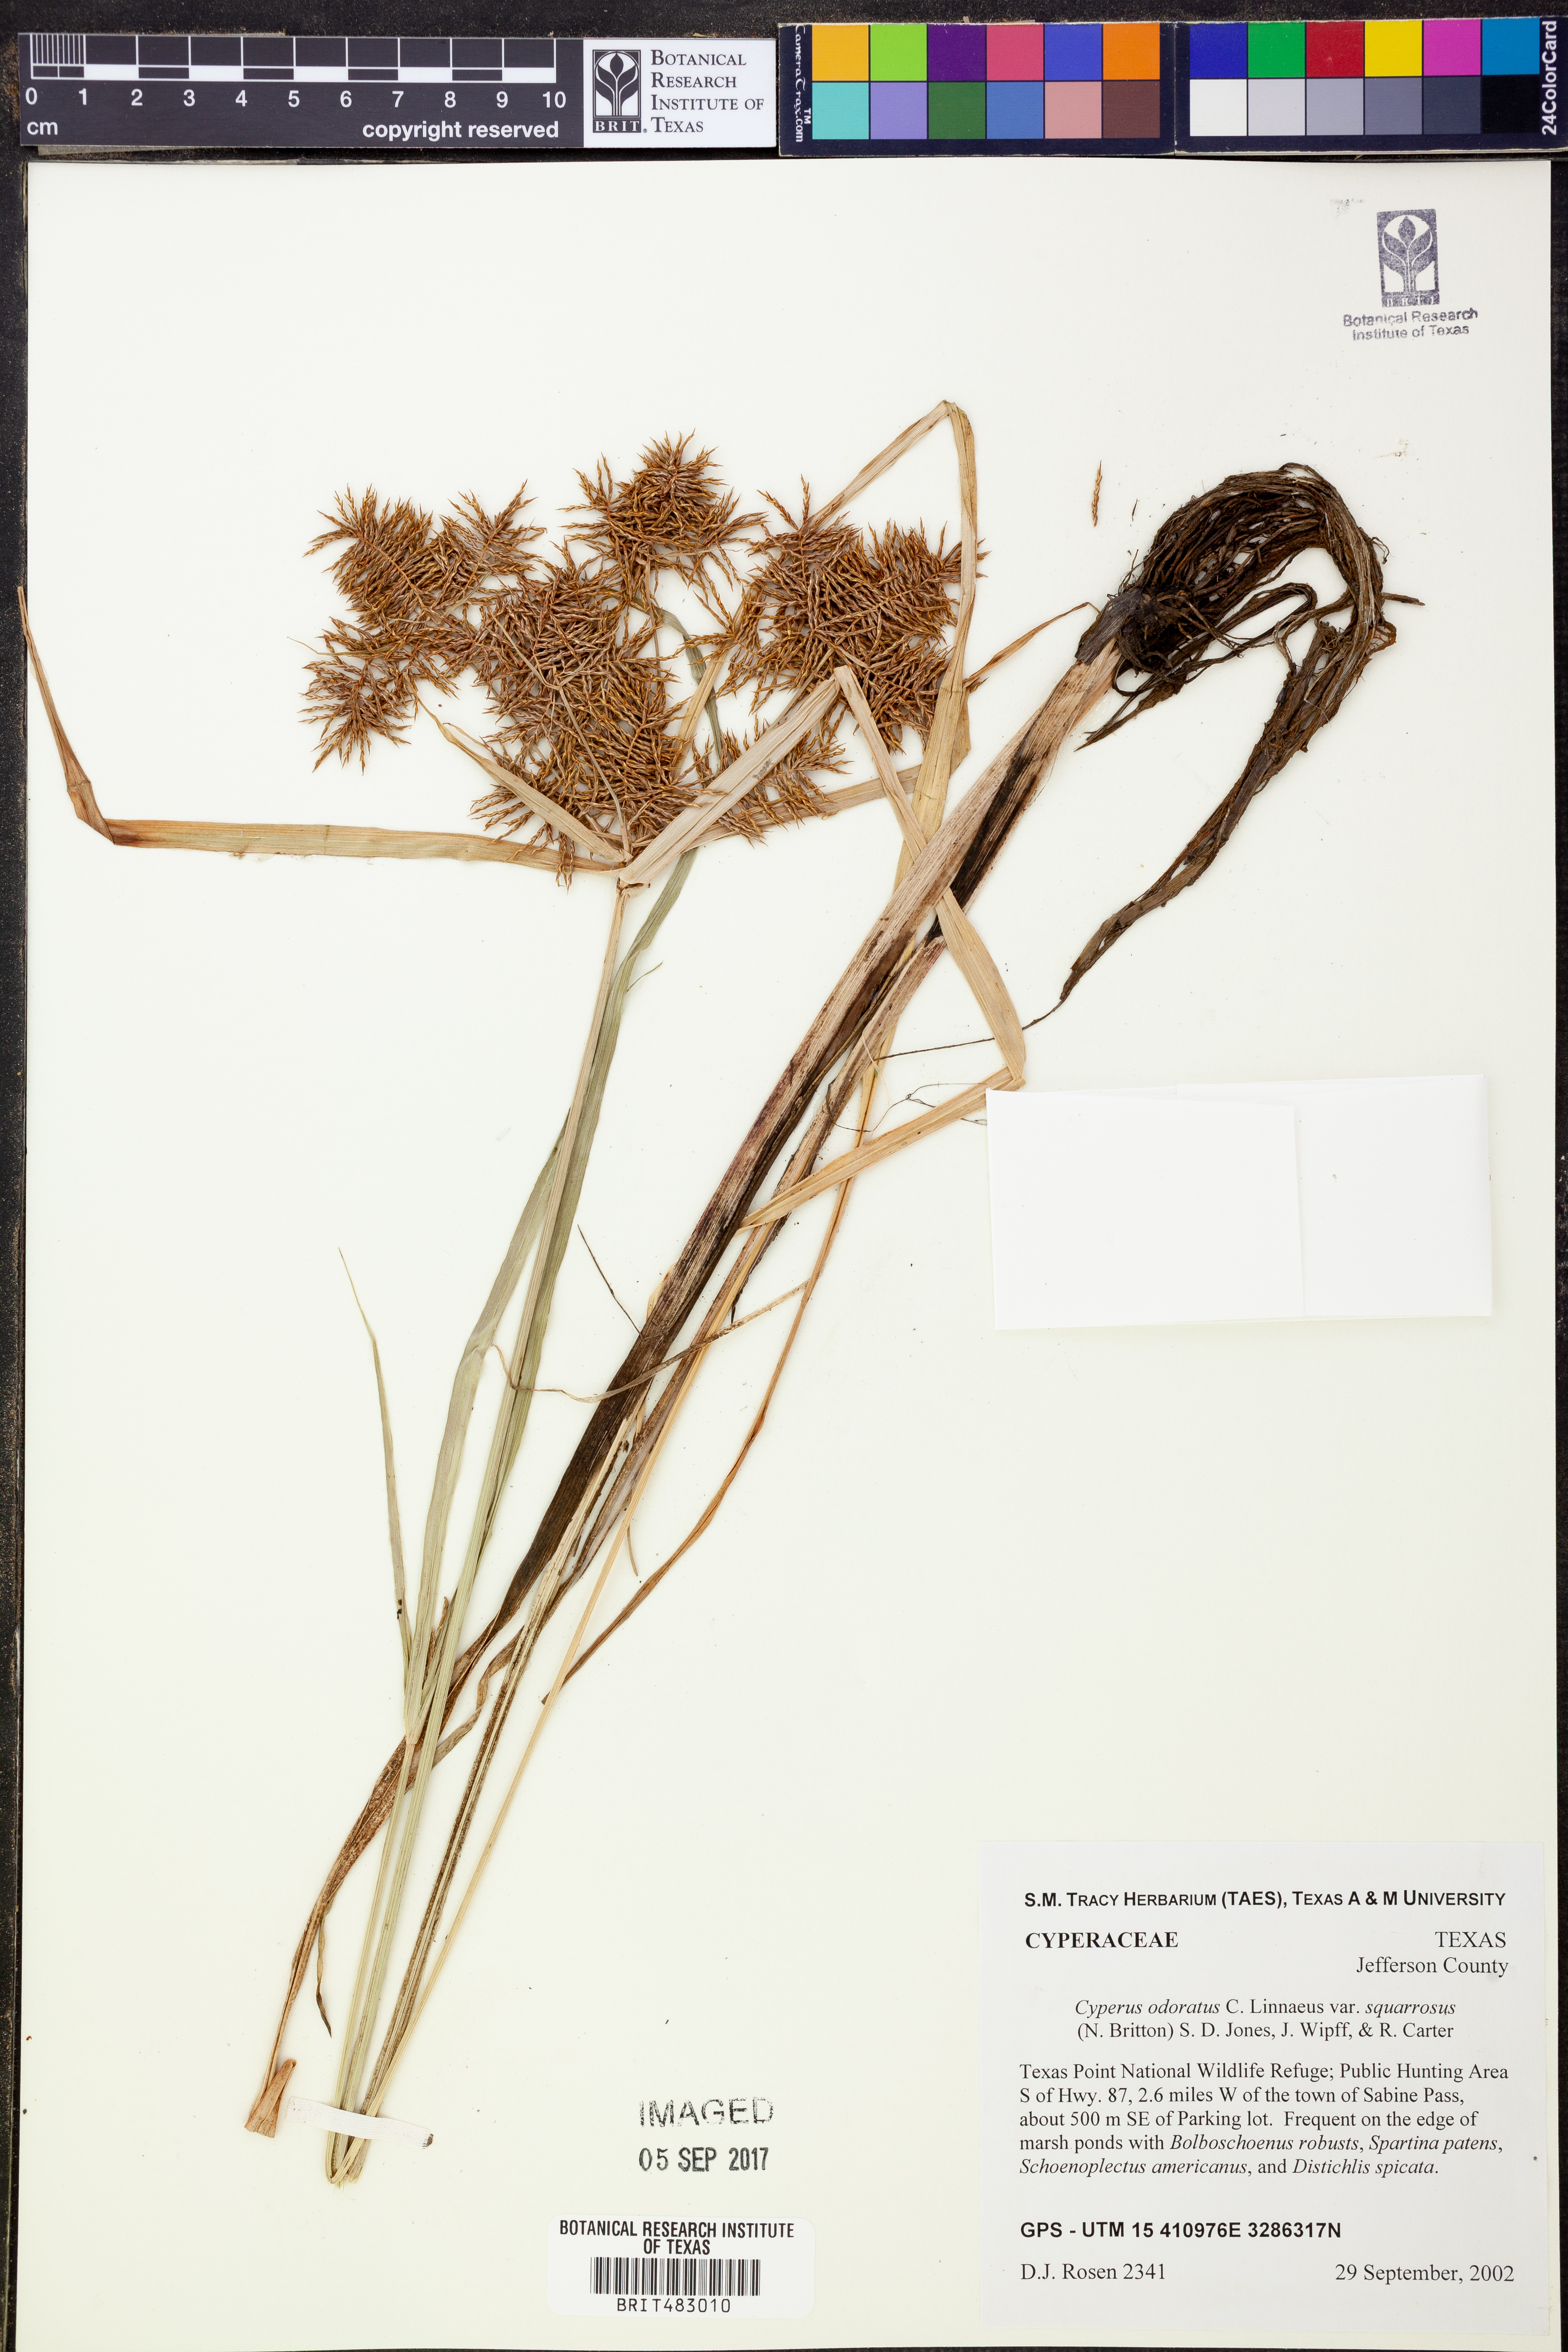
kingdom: Plantae
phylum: Tracheophyta
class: Liliopsida
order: Poales
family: Cyperaceae
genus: Cyperus
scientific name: Cyperus odoratus
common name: Fragrant flatsedge
